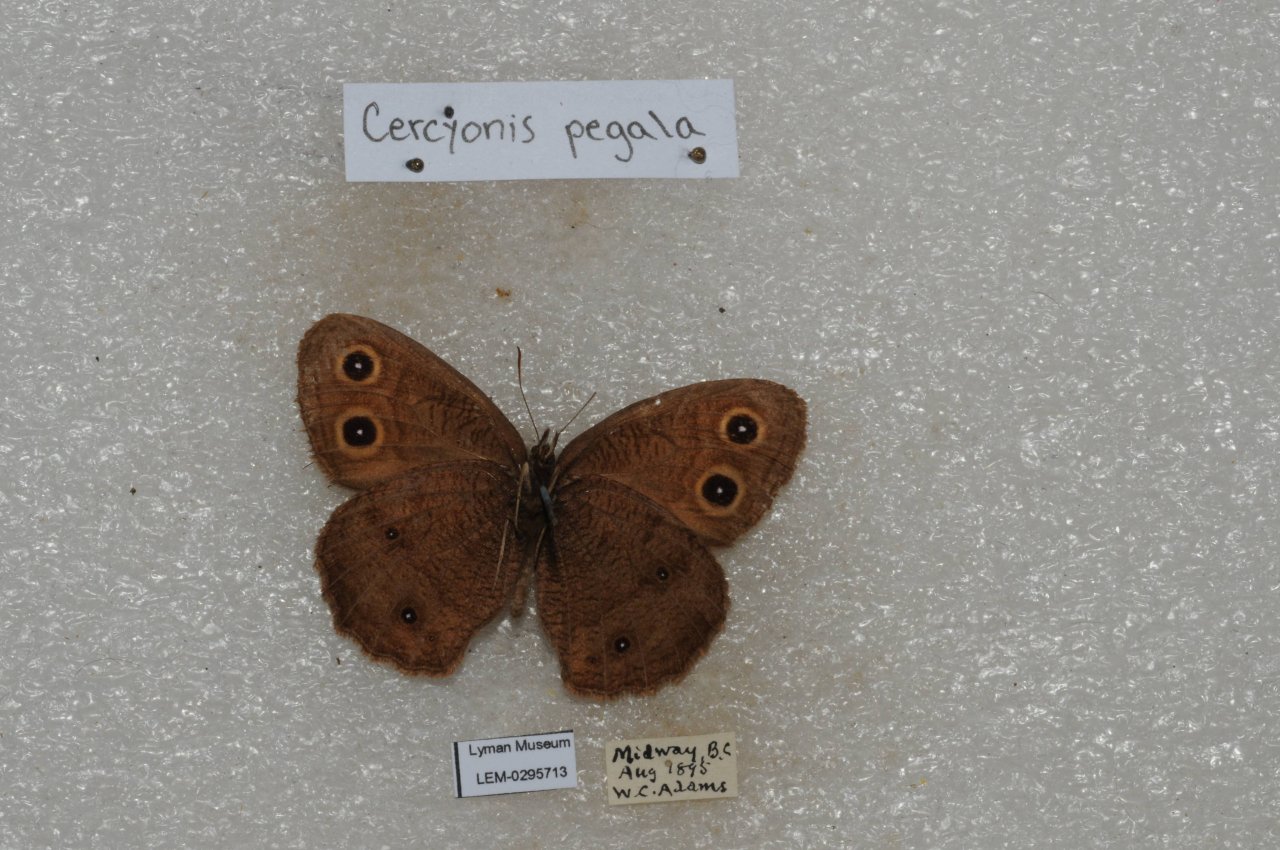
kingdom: Animalia
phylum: Arthropoda
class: Insecta
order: Lepidoptera
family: Nymphalidae
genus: Cercyonis
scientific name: Cercyonis pegala
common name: Common Wood-Nymph
